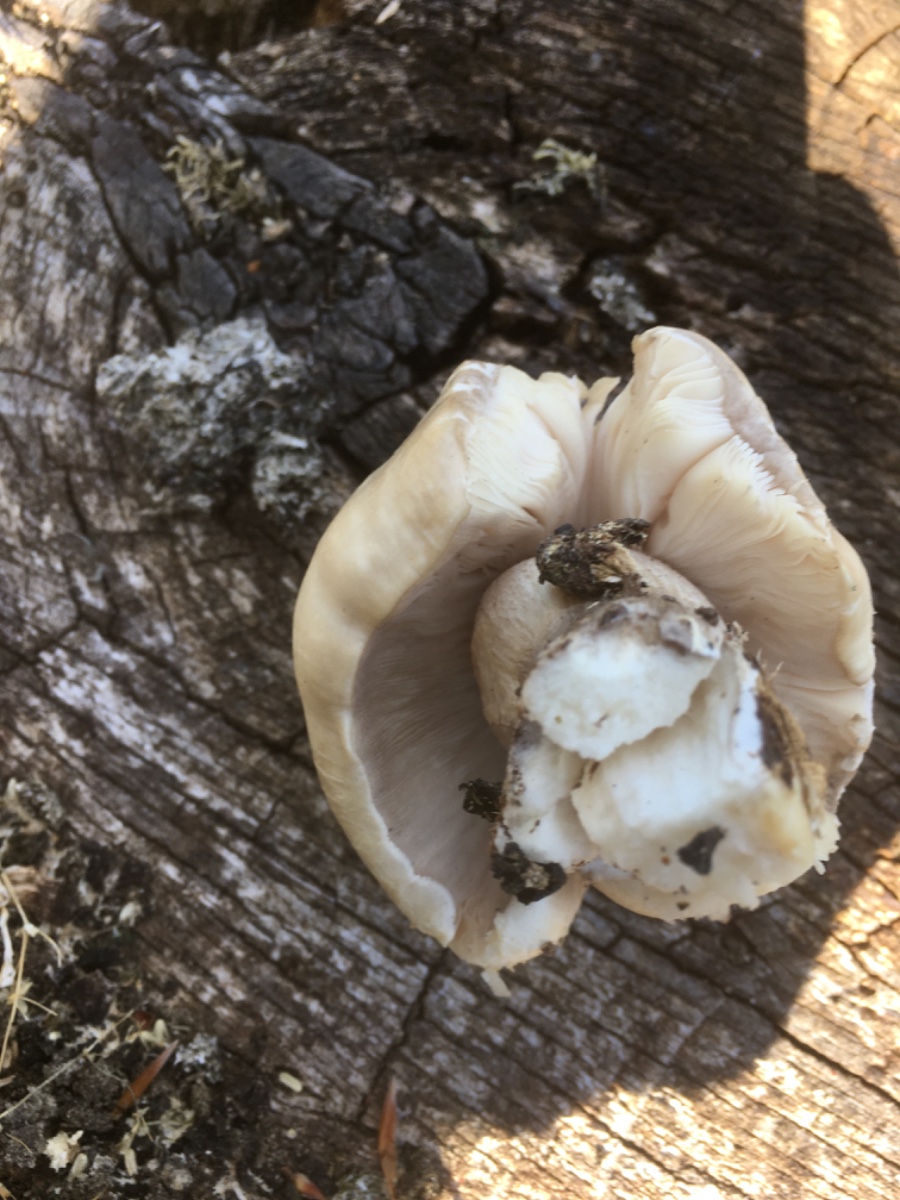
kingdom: Fungi
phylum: Basidiomycota
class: Agaricomycetes
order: Agaricales
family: Pluteaceae
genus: Pluteus
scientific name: Pluteus
